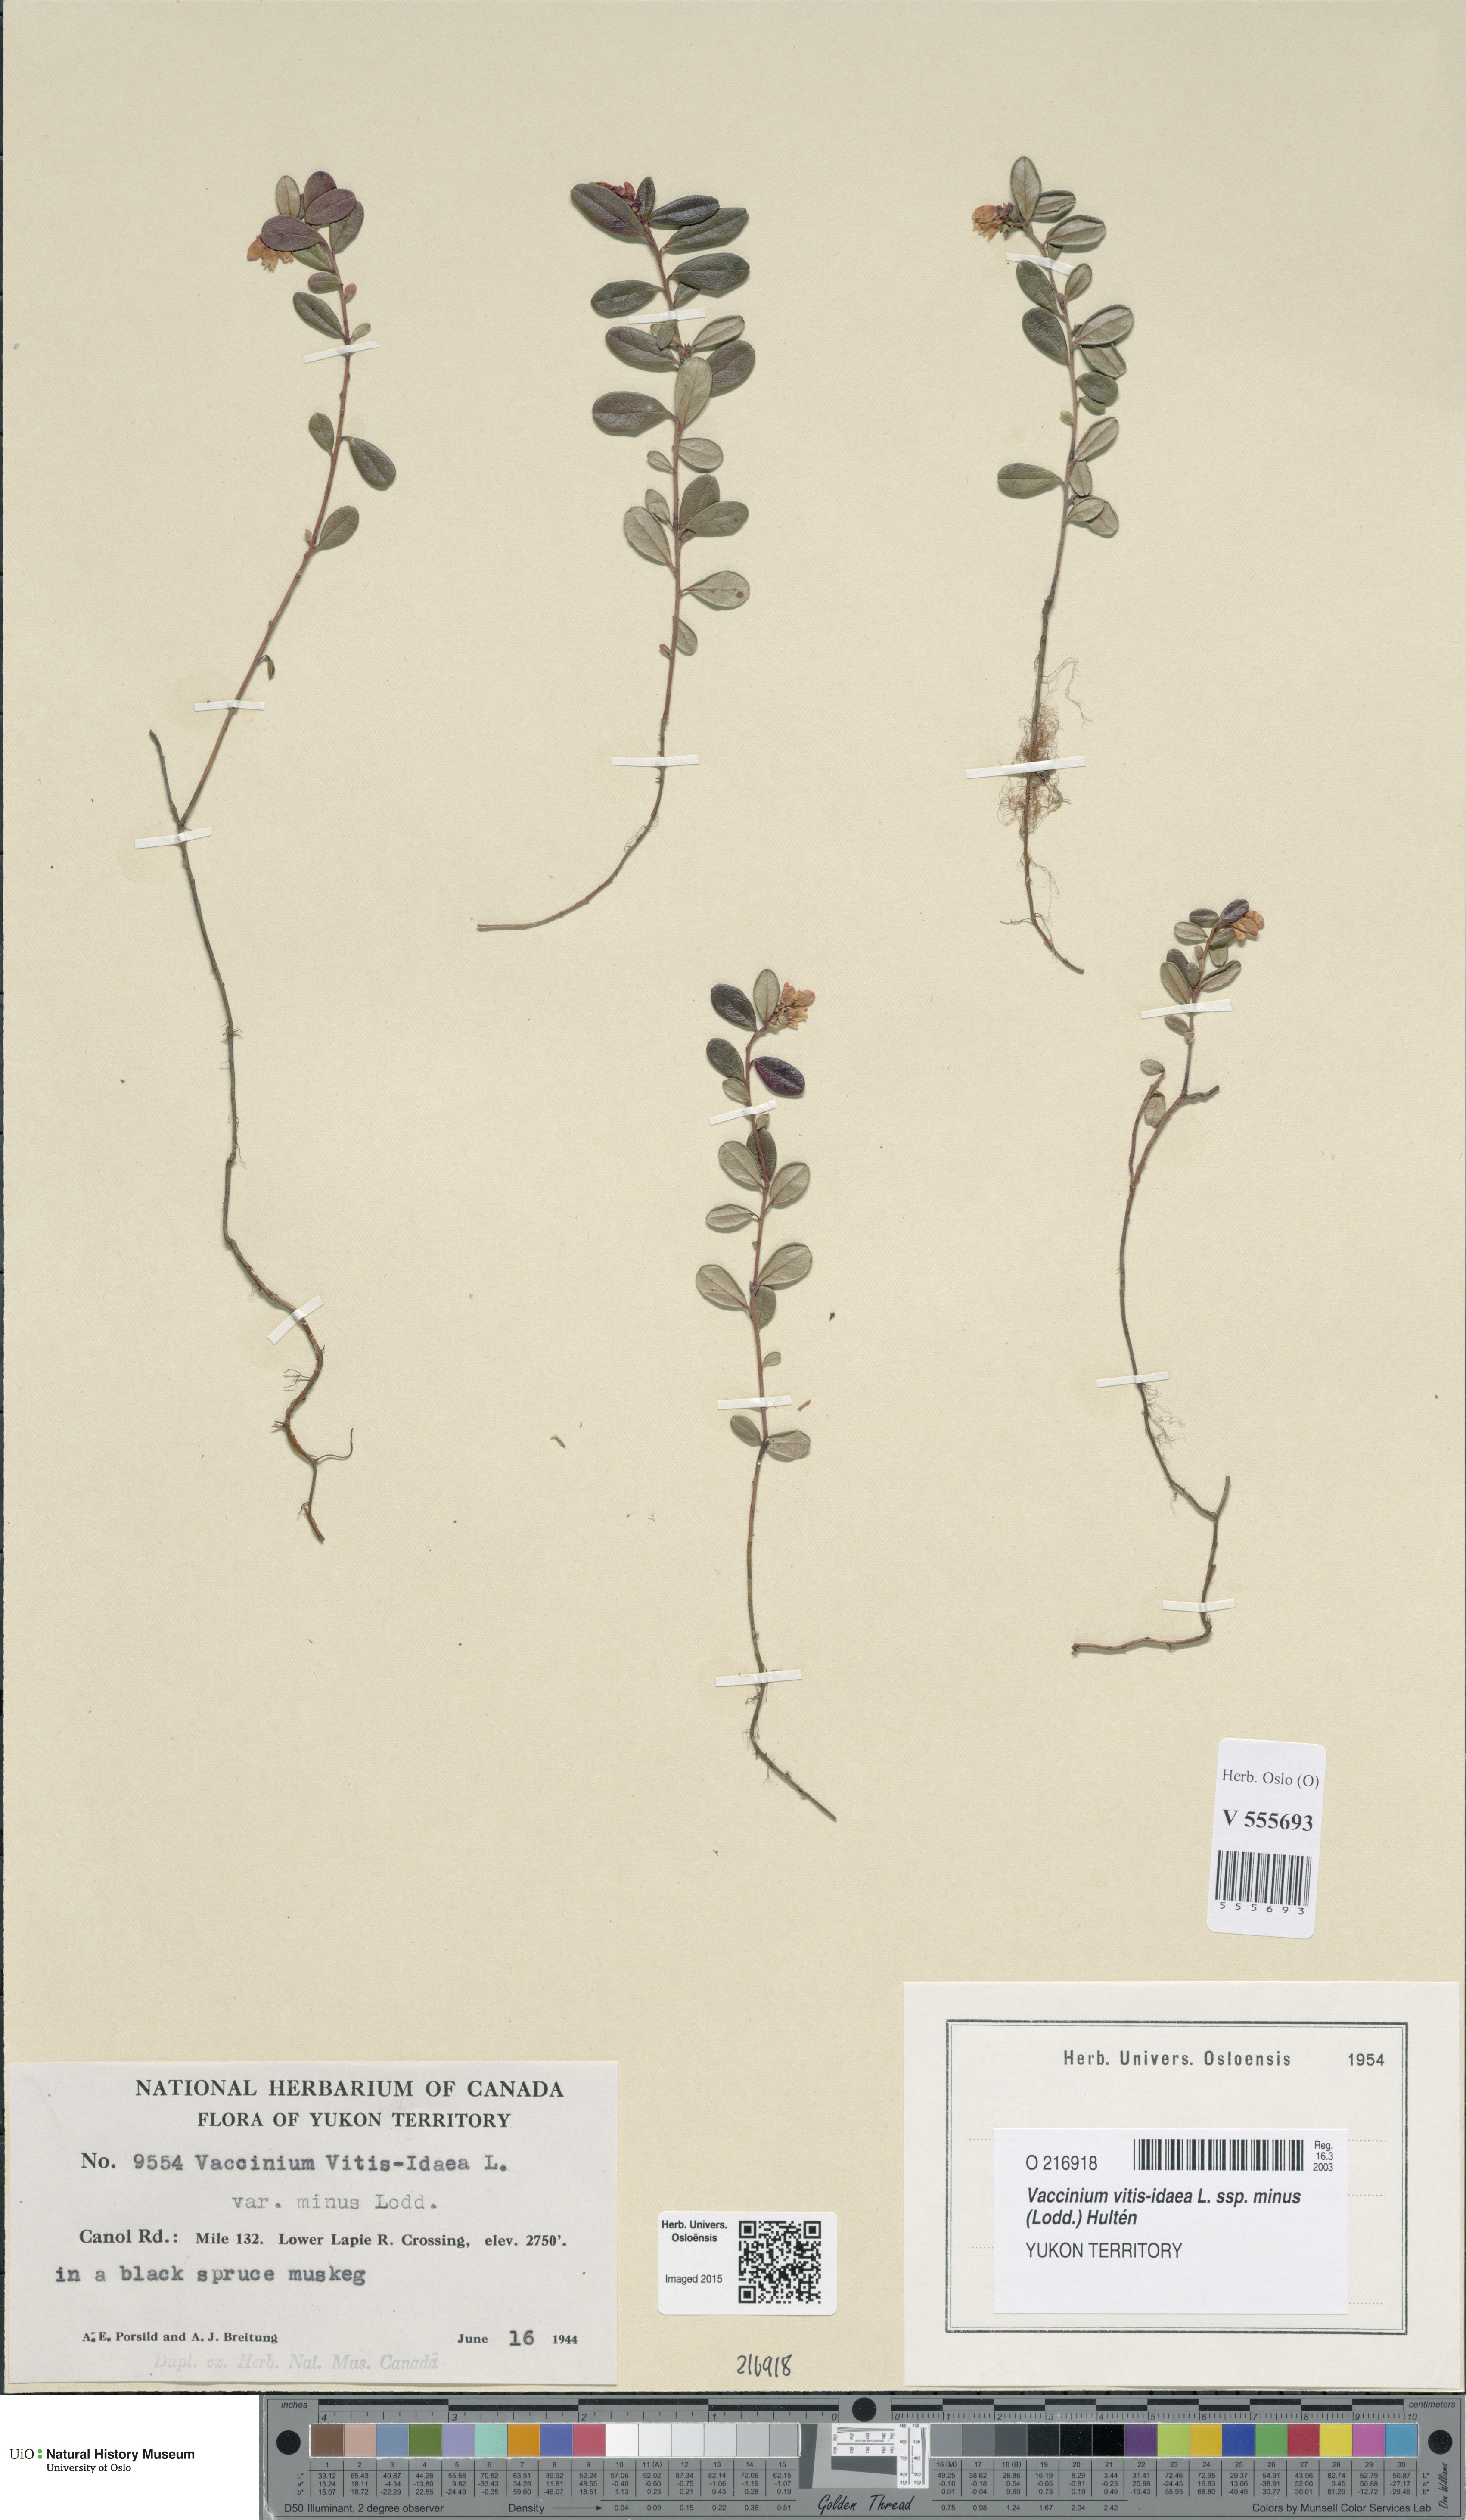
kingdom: Plantae
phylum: Tracheophyta
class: Magnoliopsida
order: Ericales
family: Ericaceae
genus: Vaccinium
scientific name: Vaccinium vitis-idaea
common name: Cowberry
